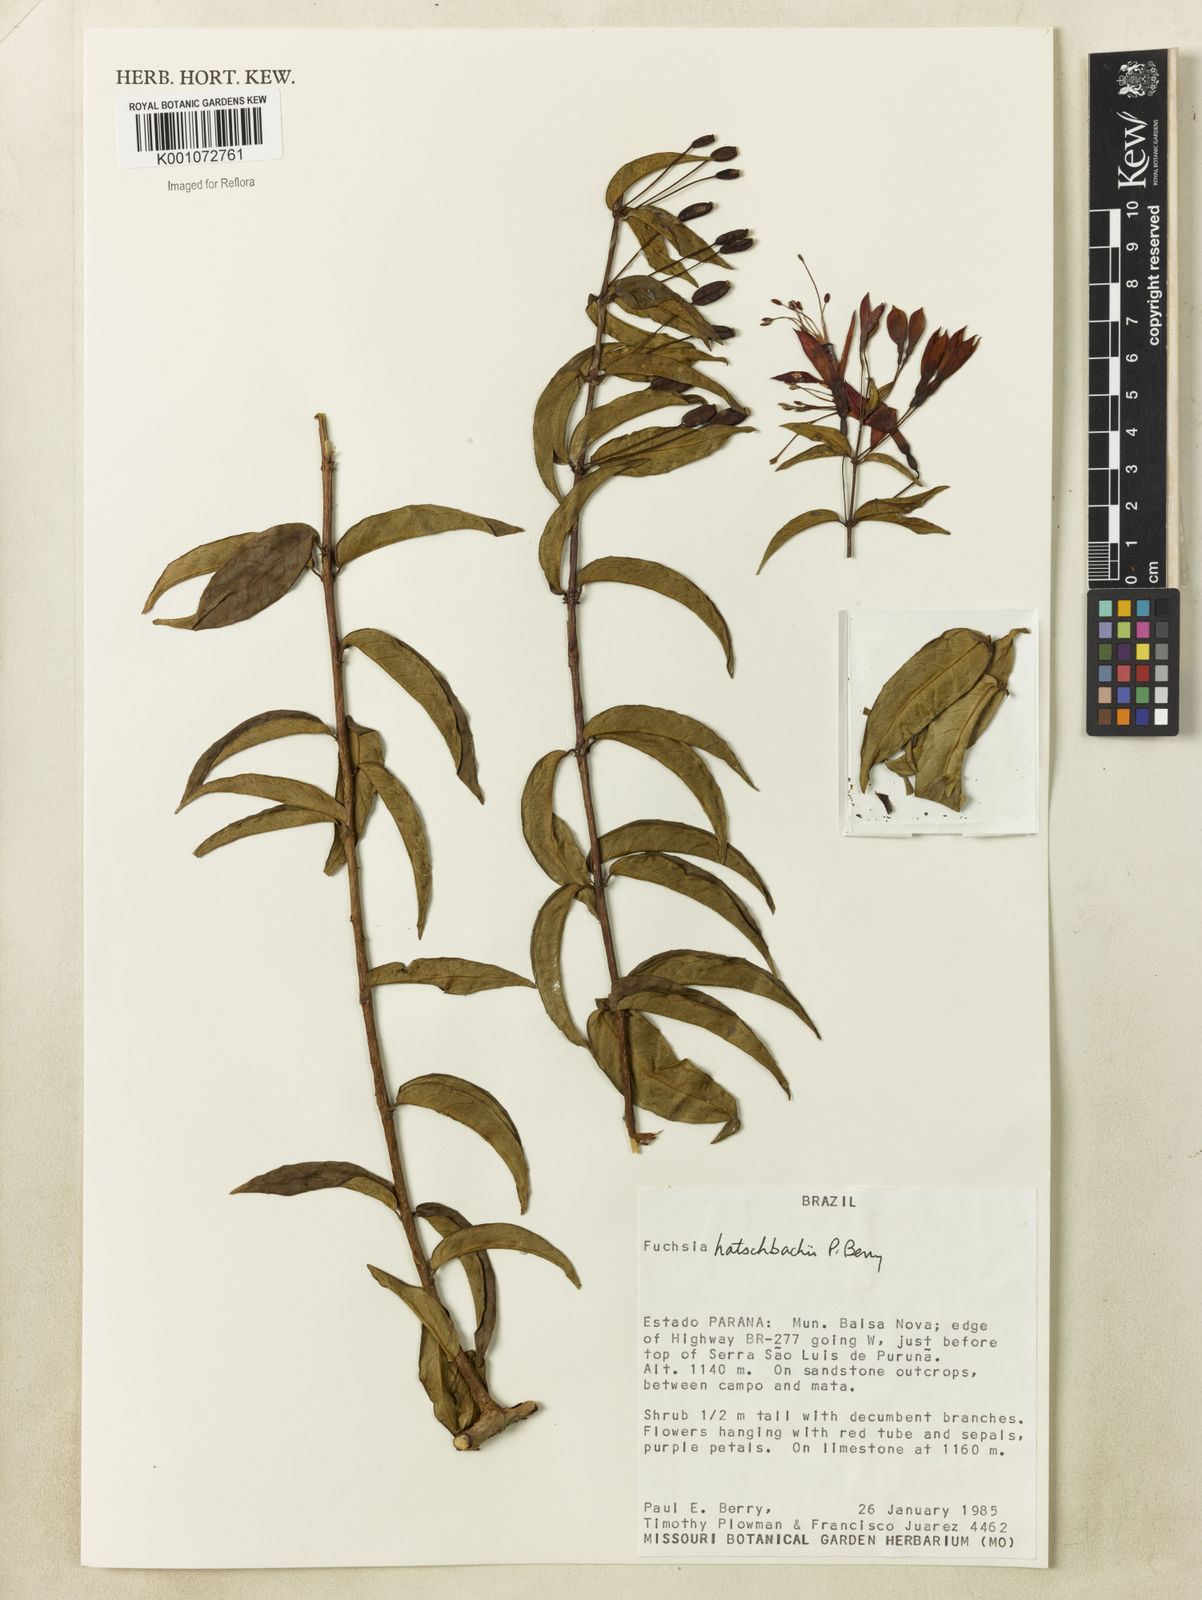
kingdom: Plantae
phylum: Tracheophyta
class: Magnoliopsida
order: Myrtales
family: Onagraceae
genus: Fuchsia
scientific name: Fuchsia hatschbachii
